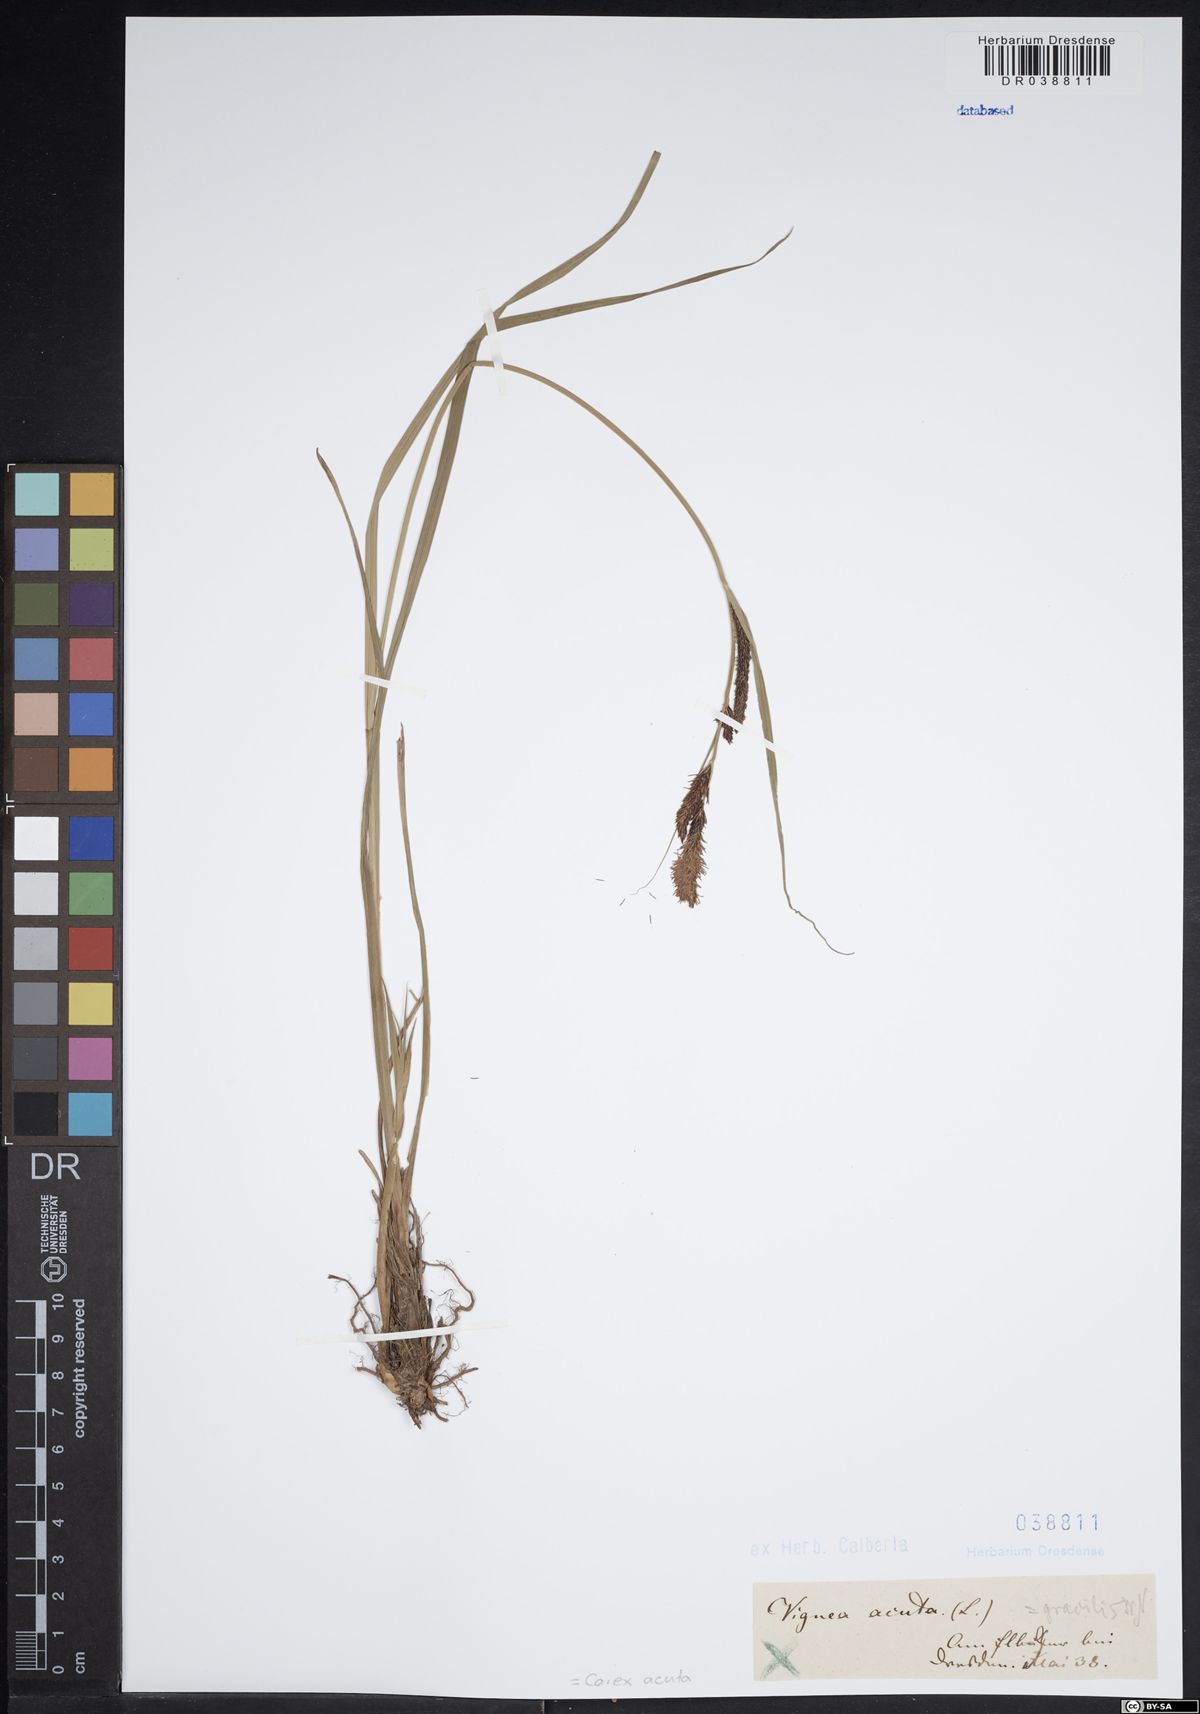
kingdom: Plantae
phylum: Tracheophyta
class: Liliopsida
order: Poales
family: Cyperaceae
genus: Carex
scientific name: Carex acuta
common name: Slender tufted-sedge
